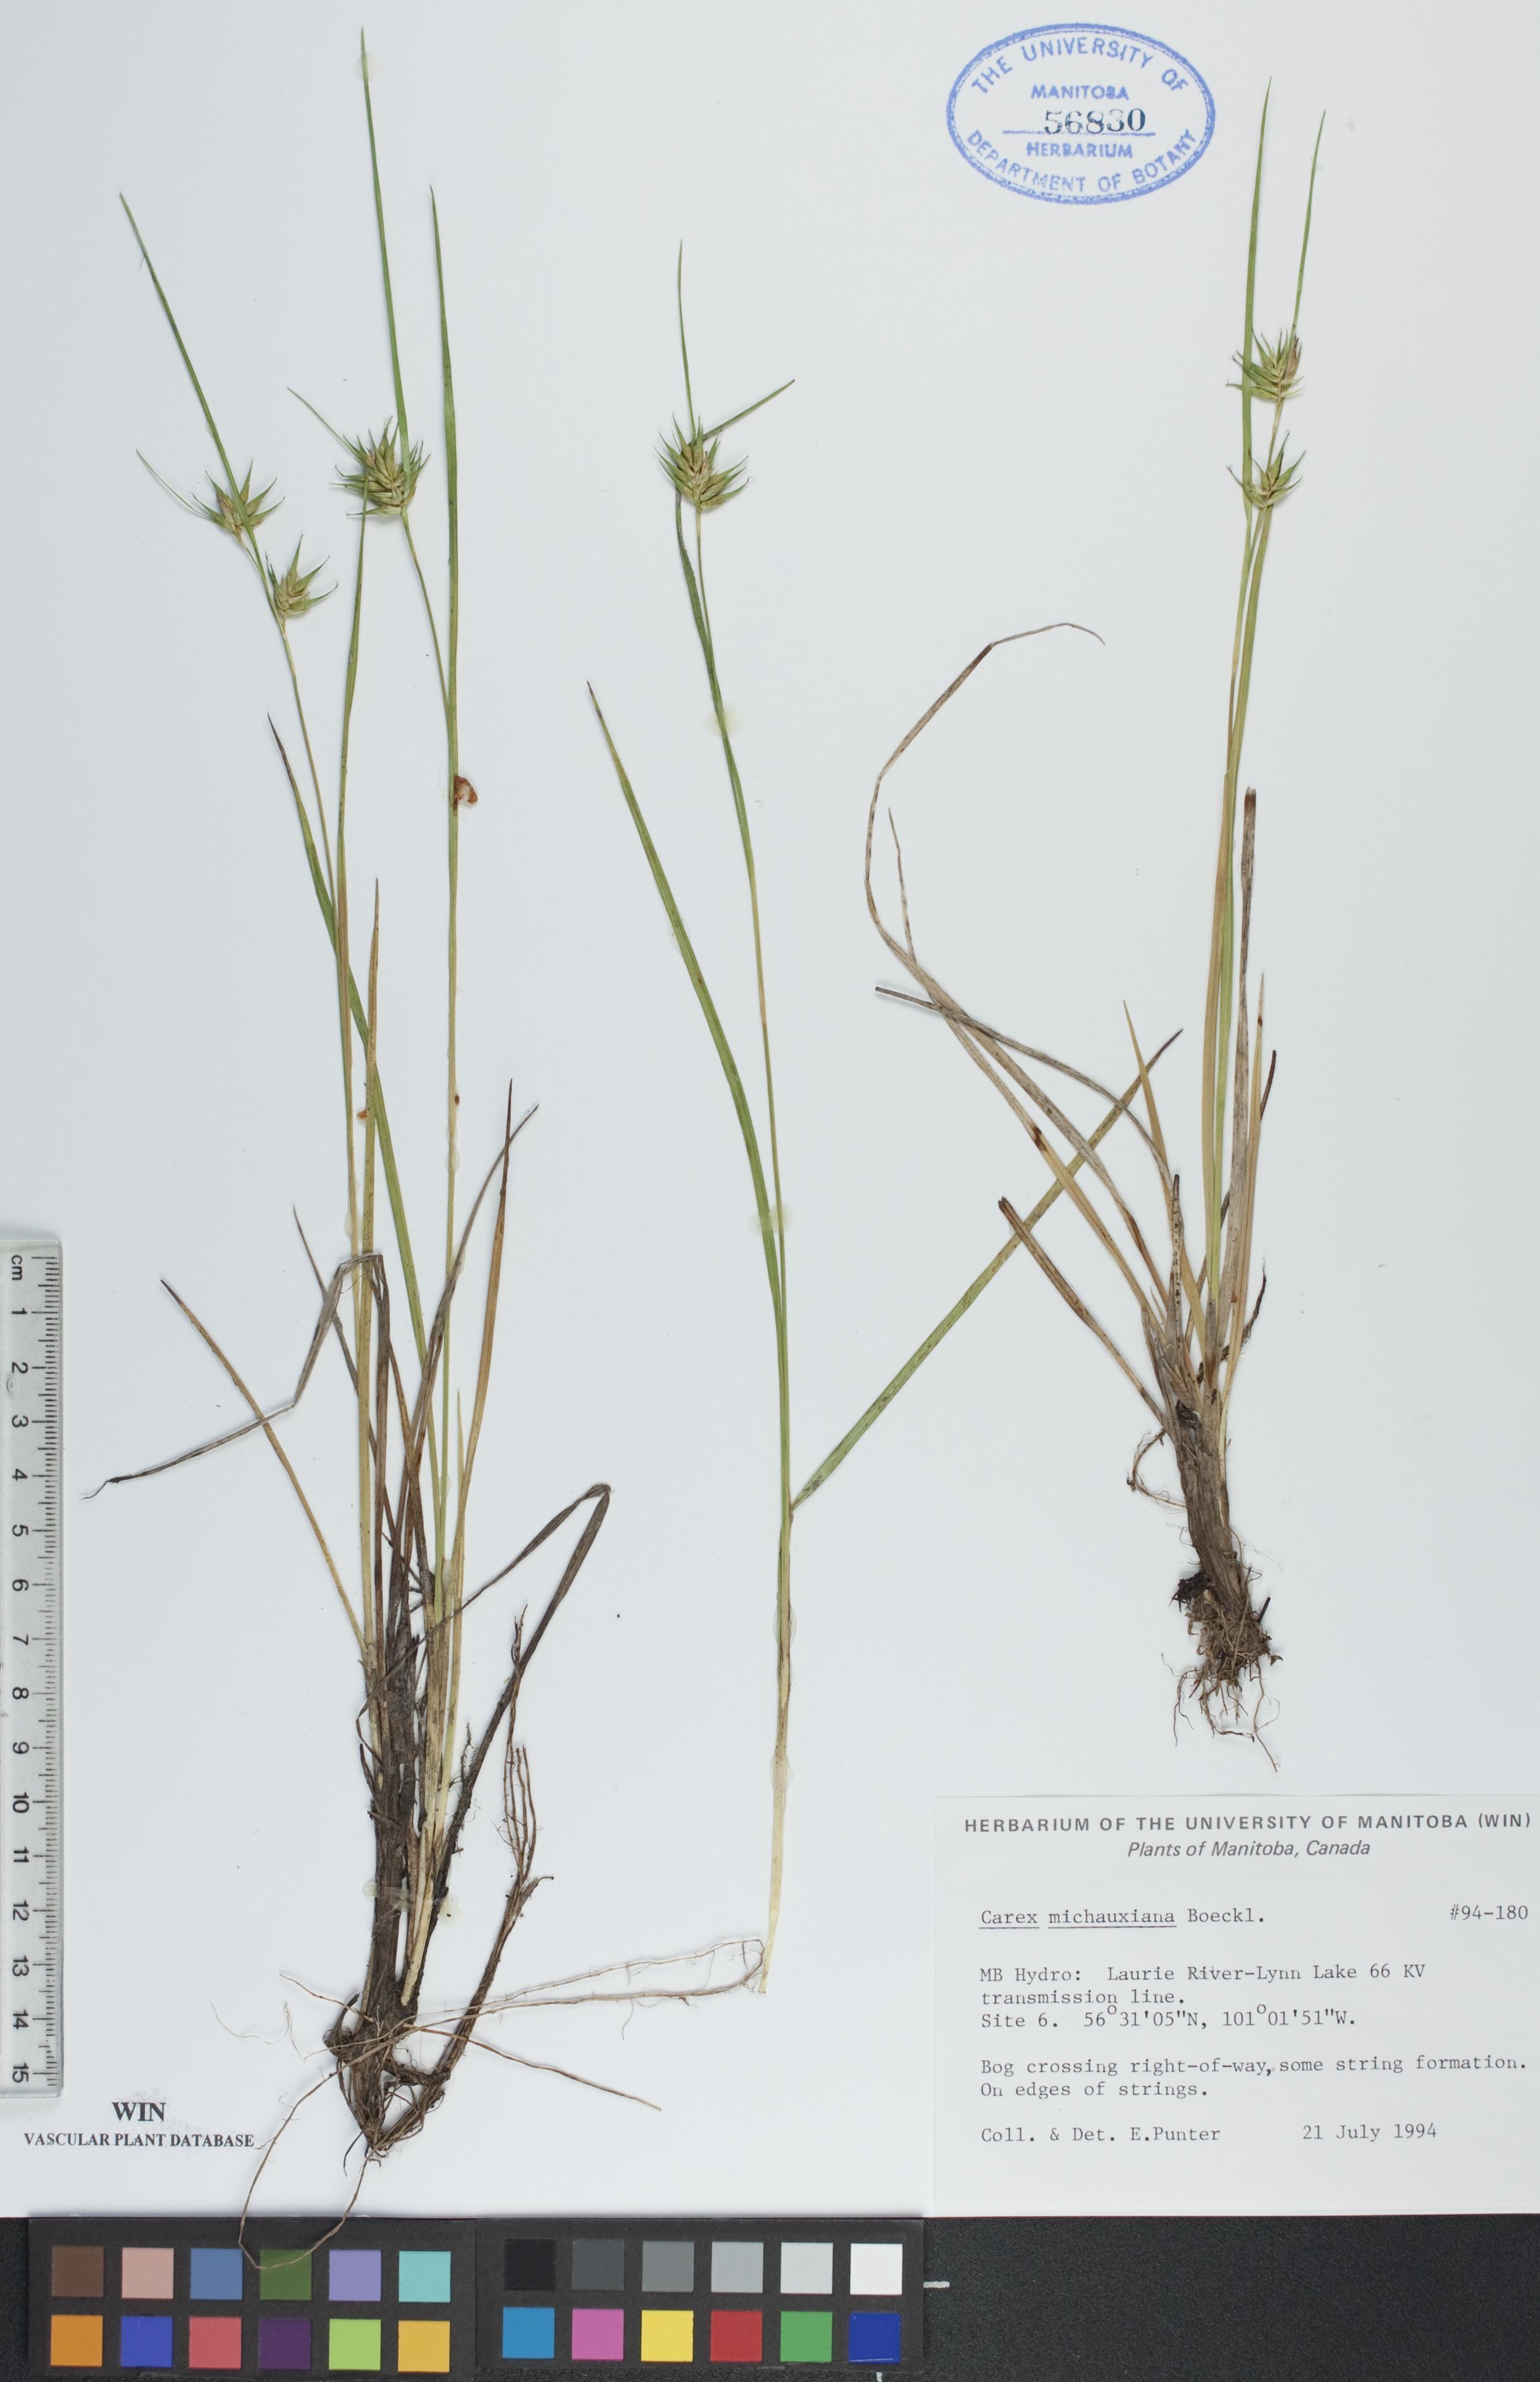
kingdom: Plantae
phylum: Tracheophyta
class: Liliopsida
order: Poales
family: Cyperaceae
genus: Carex
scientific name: Carex michauxiana
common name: Michaux's sedge
